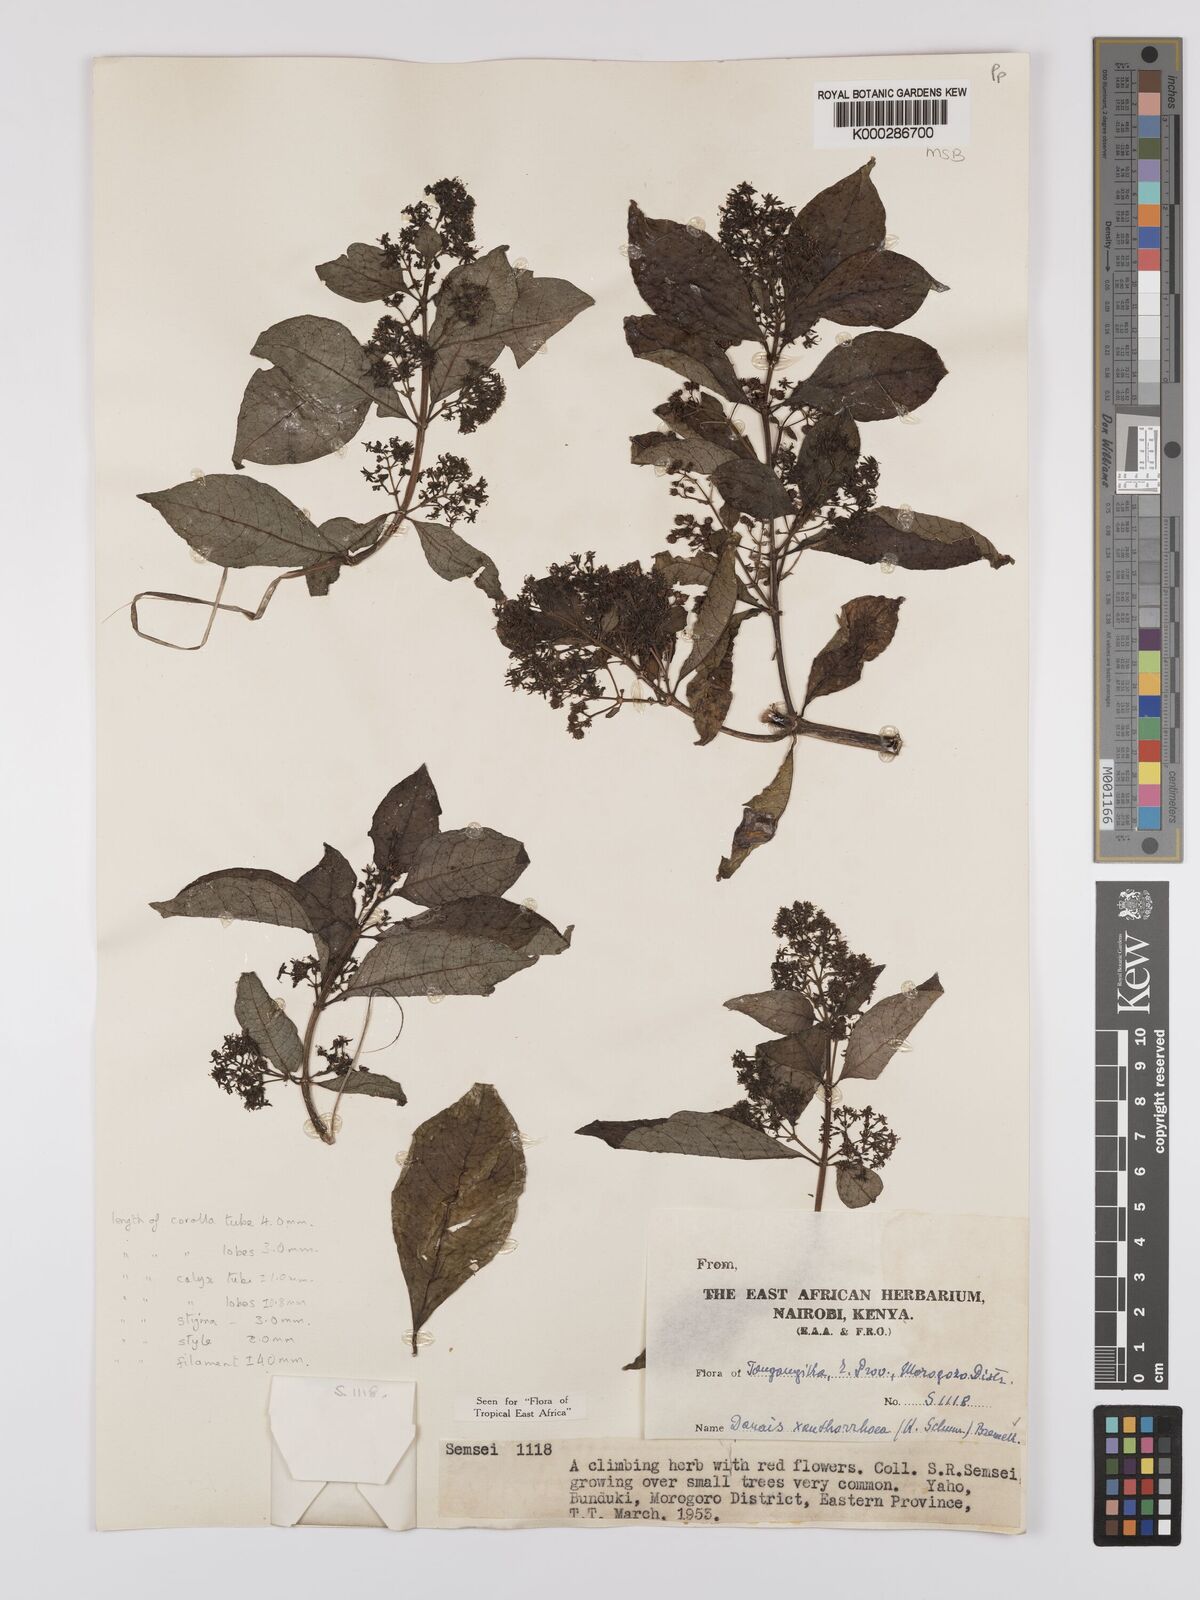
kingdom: Plantae
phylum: Tracheophyta
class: Magnoliopsida
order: Gentianales
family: Rubiaceae
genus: Danais
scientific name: Danais xanthorrhoea
